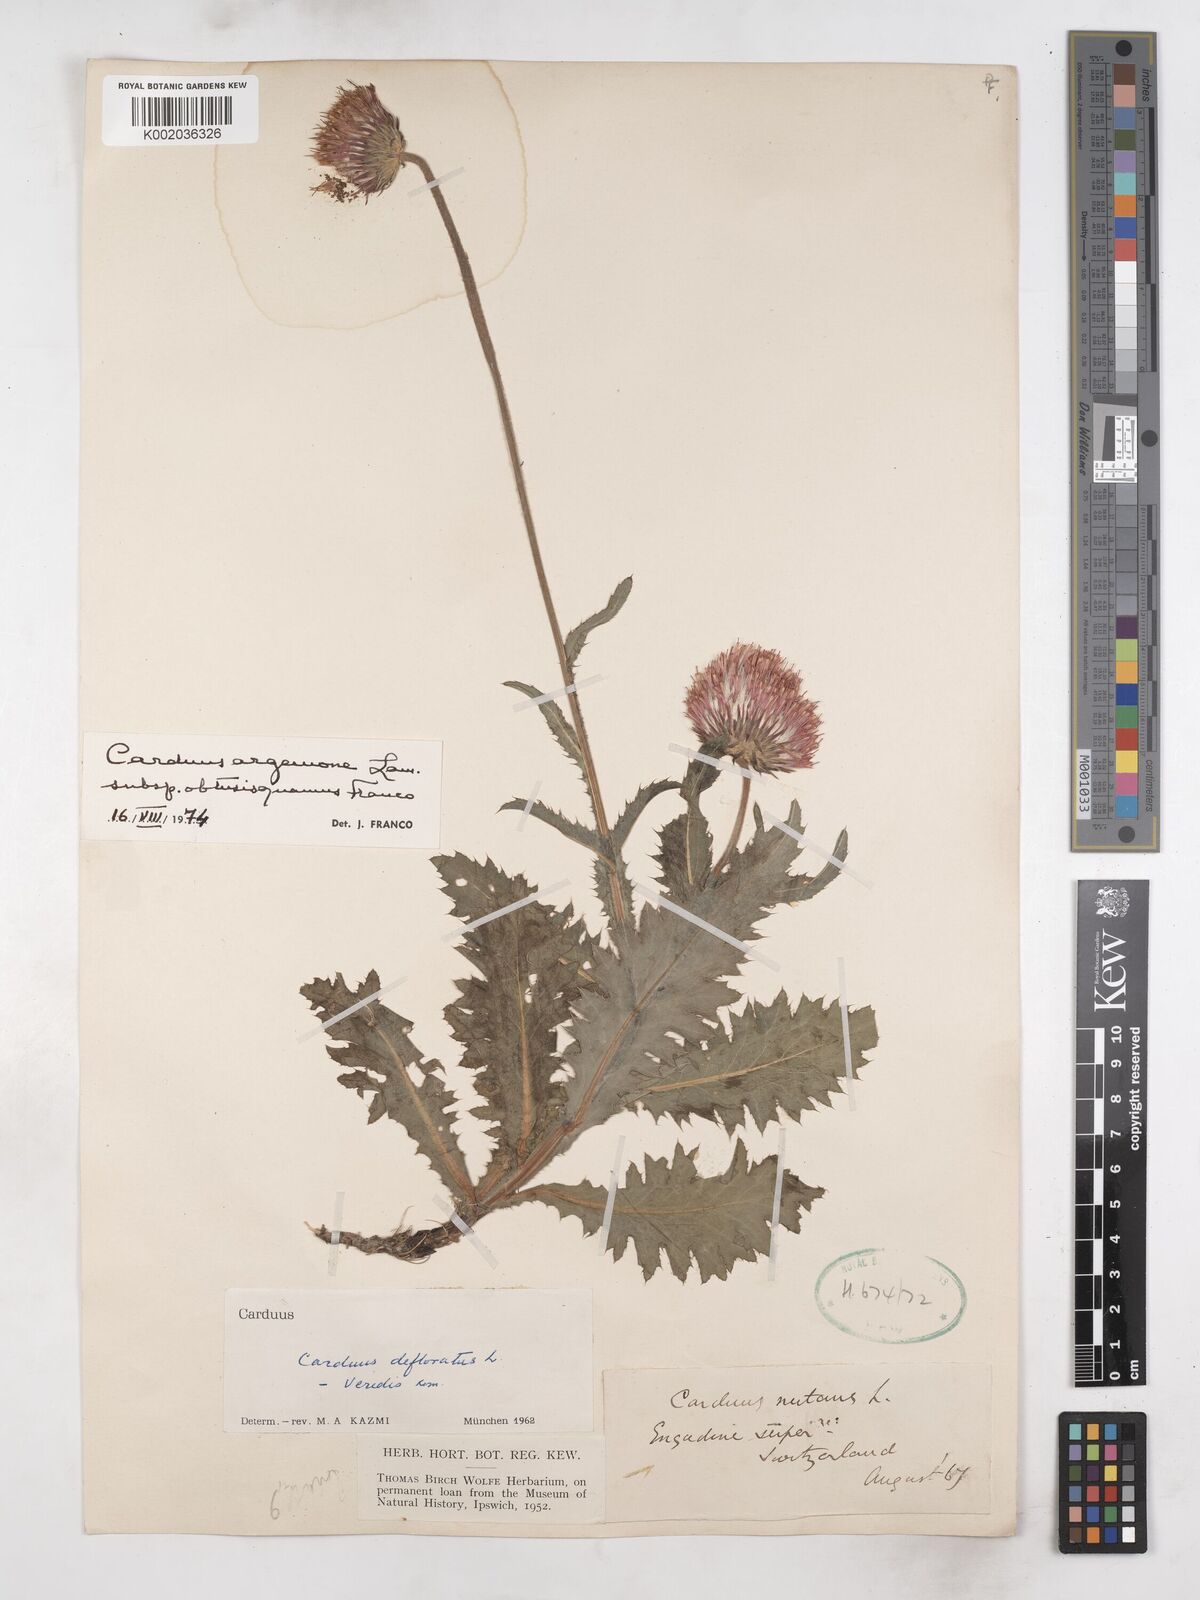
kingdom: Plantae
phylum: Tracheophyta
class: Magnoliopsida
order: Asterales
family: Asteraceae
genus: Carduus
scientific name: Carduus defloratus
